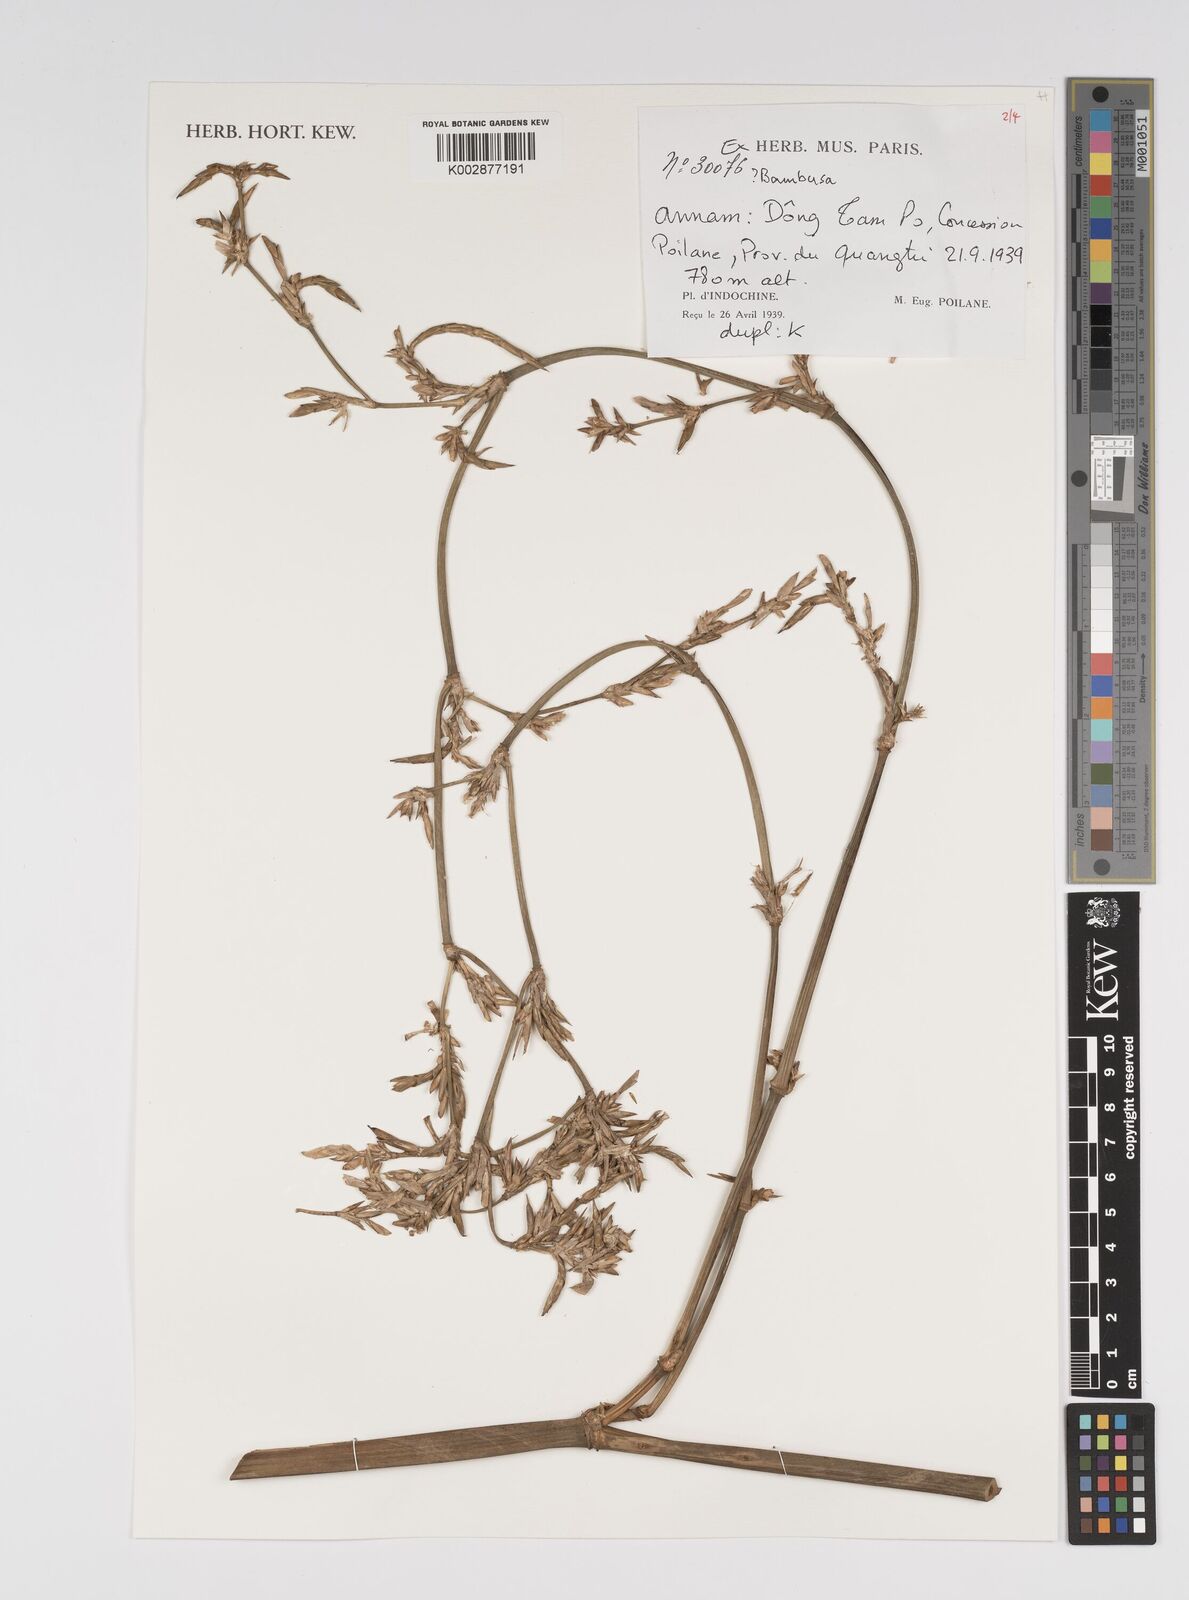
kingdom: Plantae
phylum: Tracheophyta
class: Liliopsida
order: Poales
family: Poaceae
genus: Bambusa
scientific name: Bambusa
